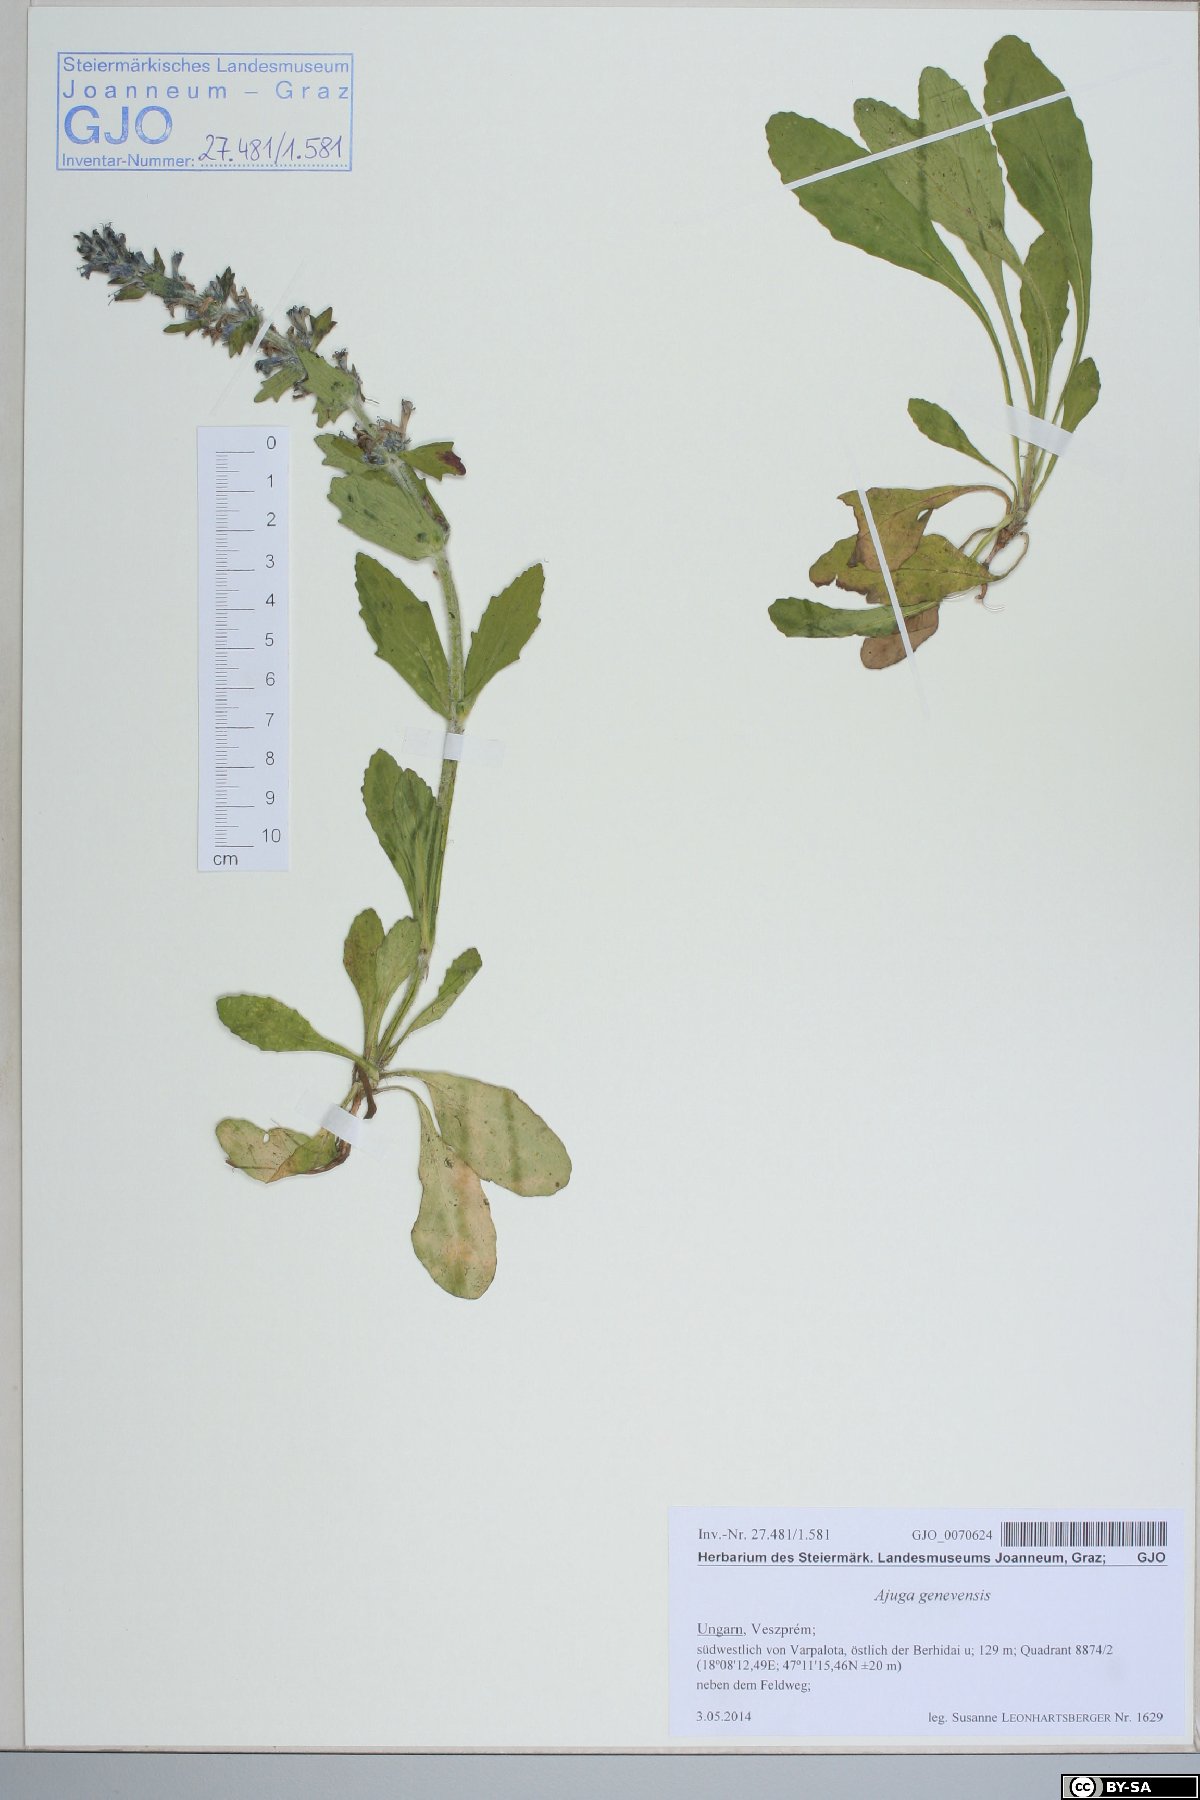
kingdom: Plantae
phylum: Tracheophyta
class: Magnoliopsida
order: Lamiales
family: Lamiaceae
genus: Ajuga
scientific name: Ajuga genevensis
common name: Blue bugle
